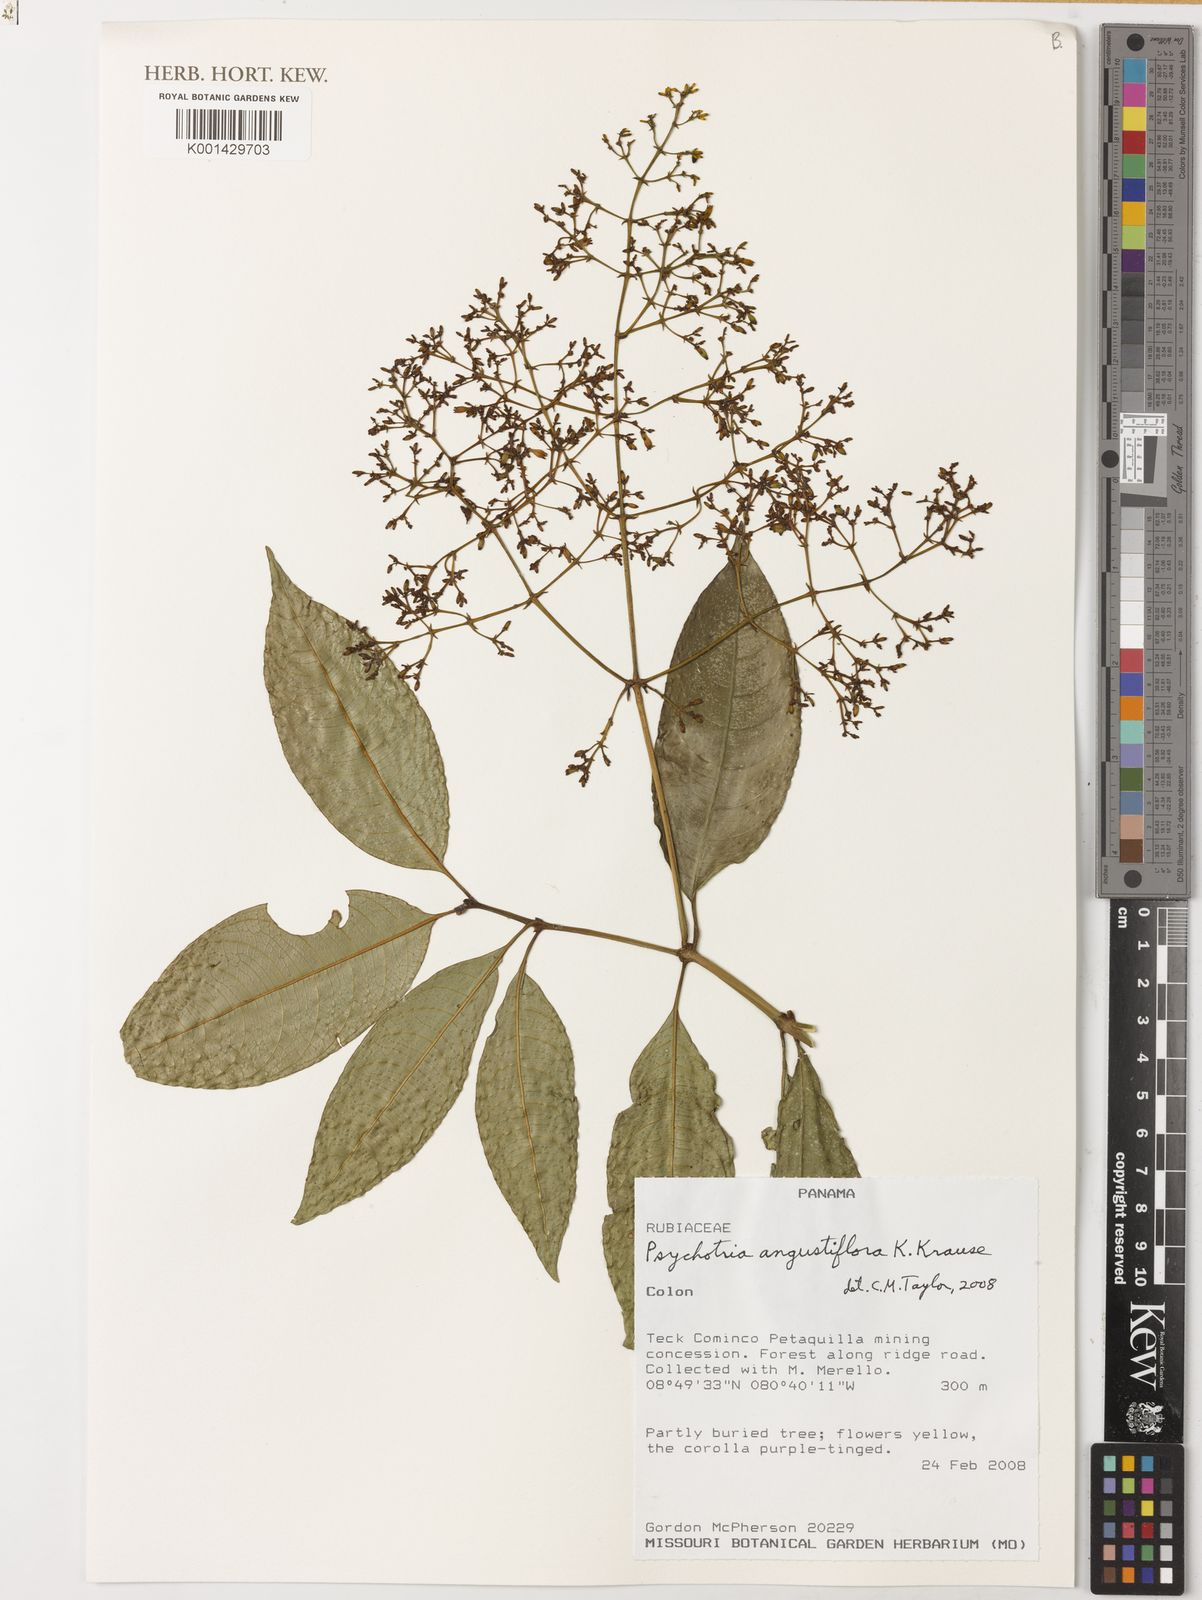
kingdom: Plantae
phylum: Tracheophyta
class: Magnoliopsida
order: Gentianales
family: Rubiaceae
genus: Palicourea
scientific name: Palicourea angustiflora
